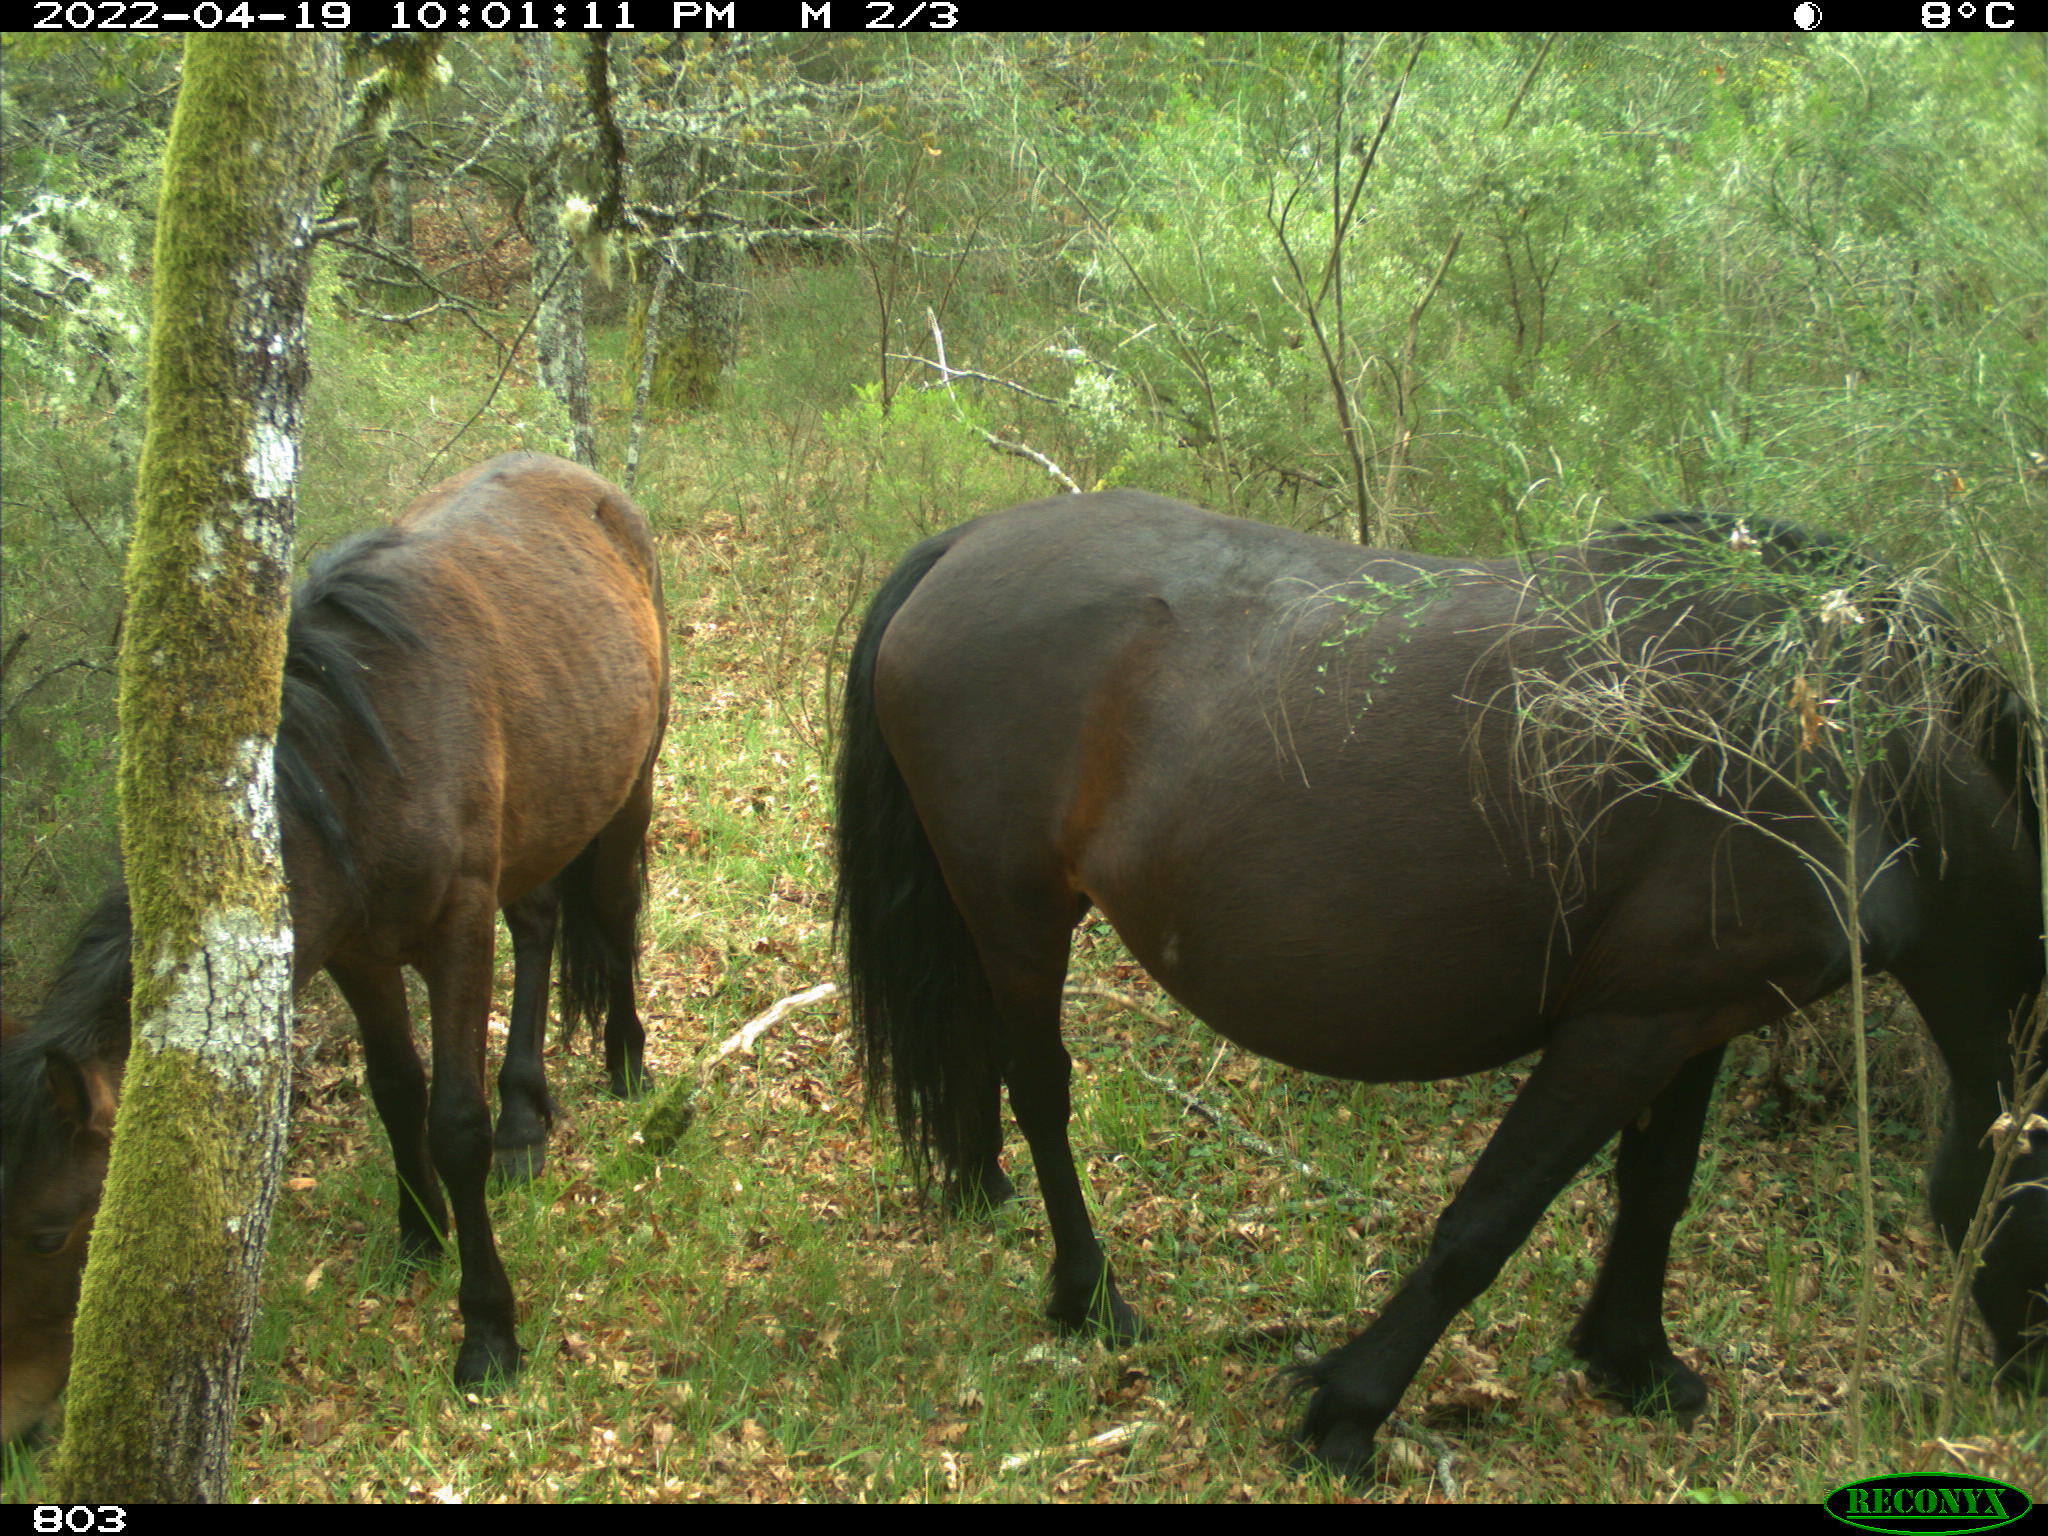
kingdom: Animalia
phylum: Chordata
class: Mammalia
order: Perissodactyla
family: Equidae
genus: Equus
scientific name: Equus caballus
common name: Horse
